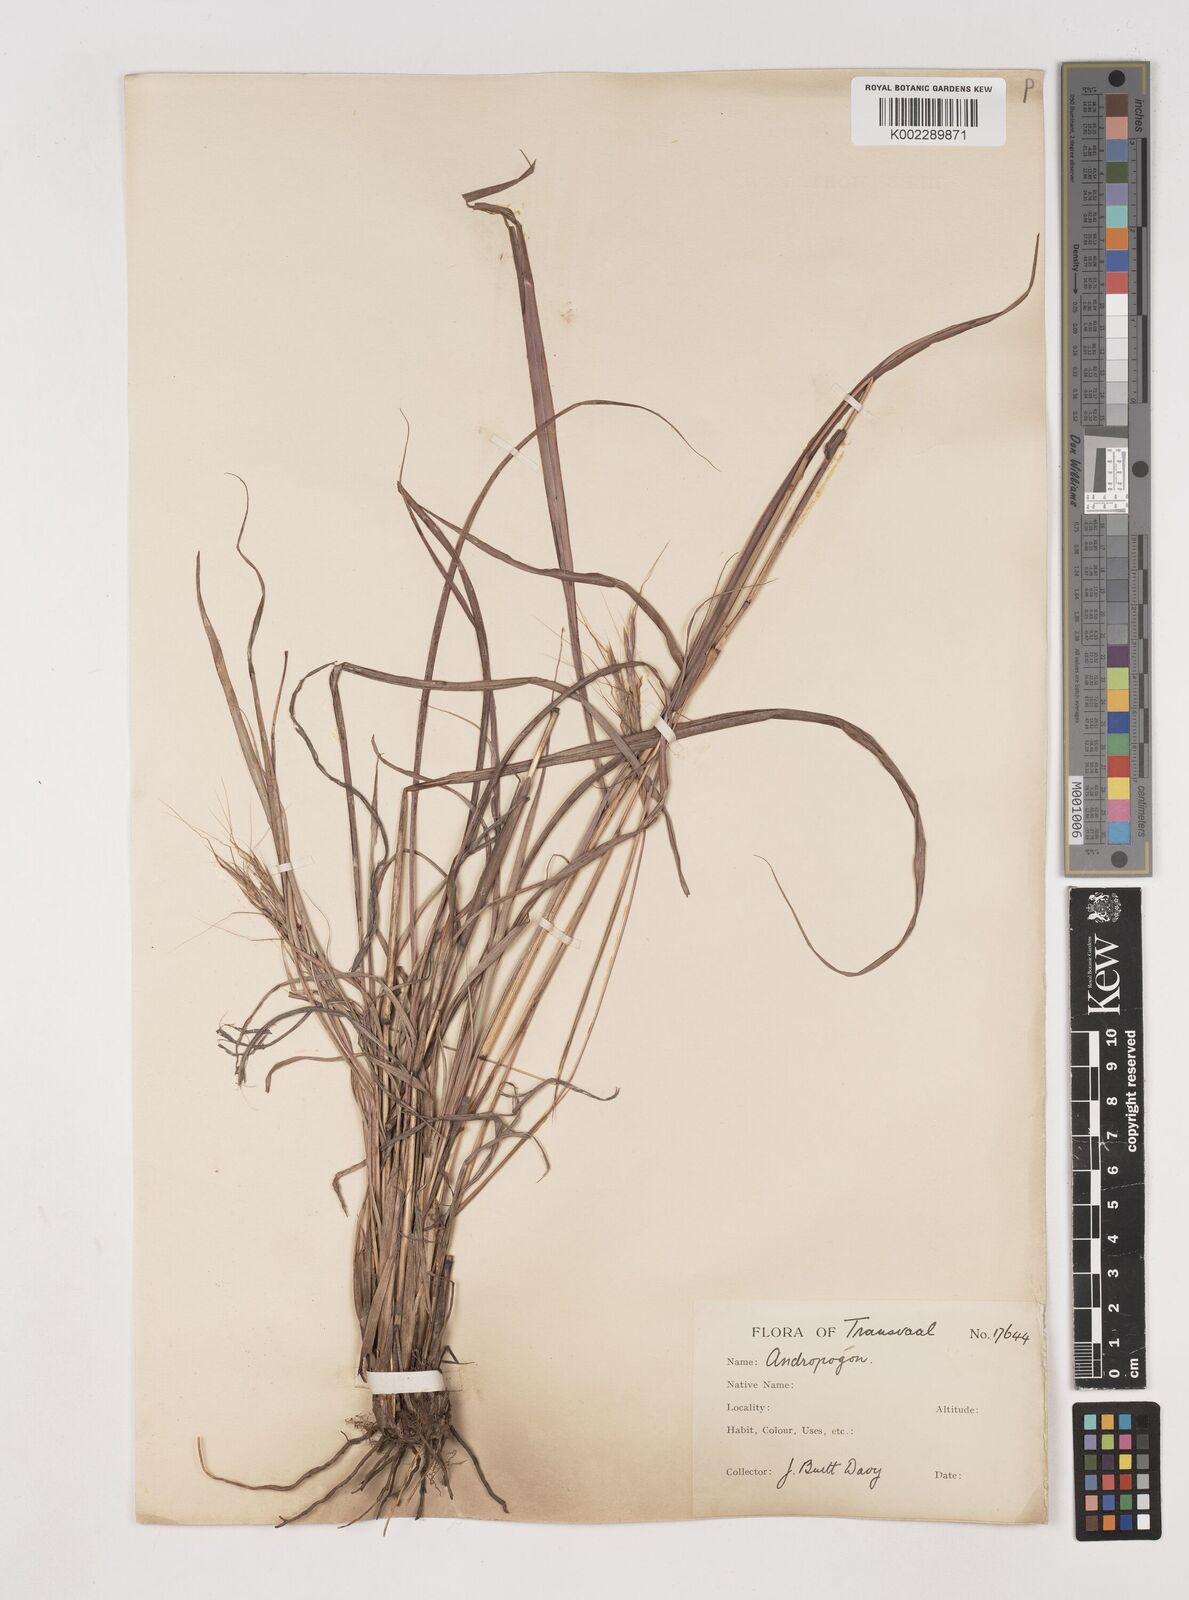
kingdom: Plantae
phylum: Tracheophyta
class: Liliopsida
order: Poales
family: Poaceae
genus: Diheteropogon
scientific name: Diheteropogon amplectens
